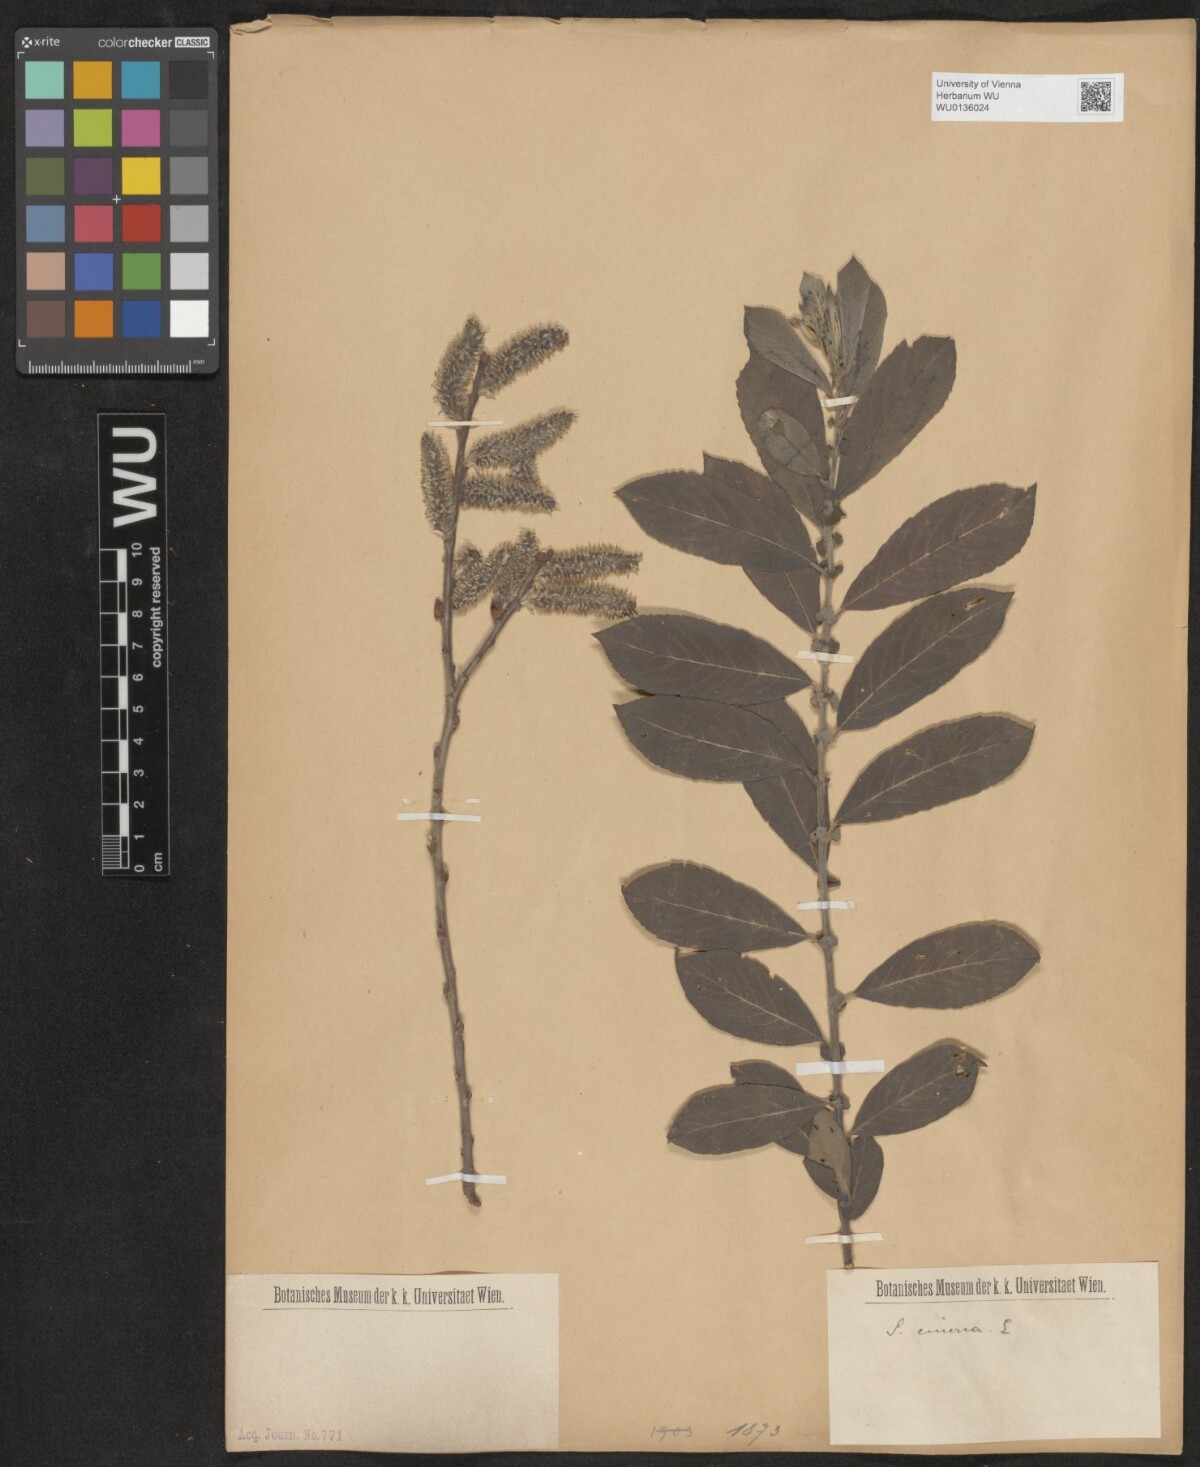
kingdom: Plantae
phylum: Tracheophyta
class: Magnoliopsida
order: Malpighiales
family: Salicaceae
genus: Salix
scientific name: Salix cinerea
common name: Common sallow
